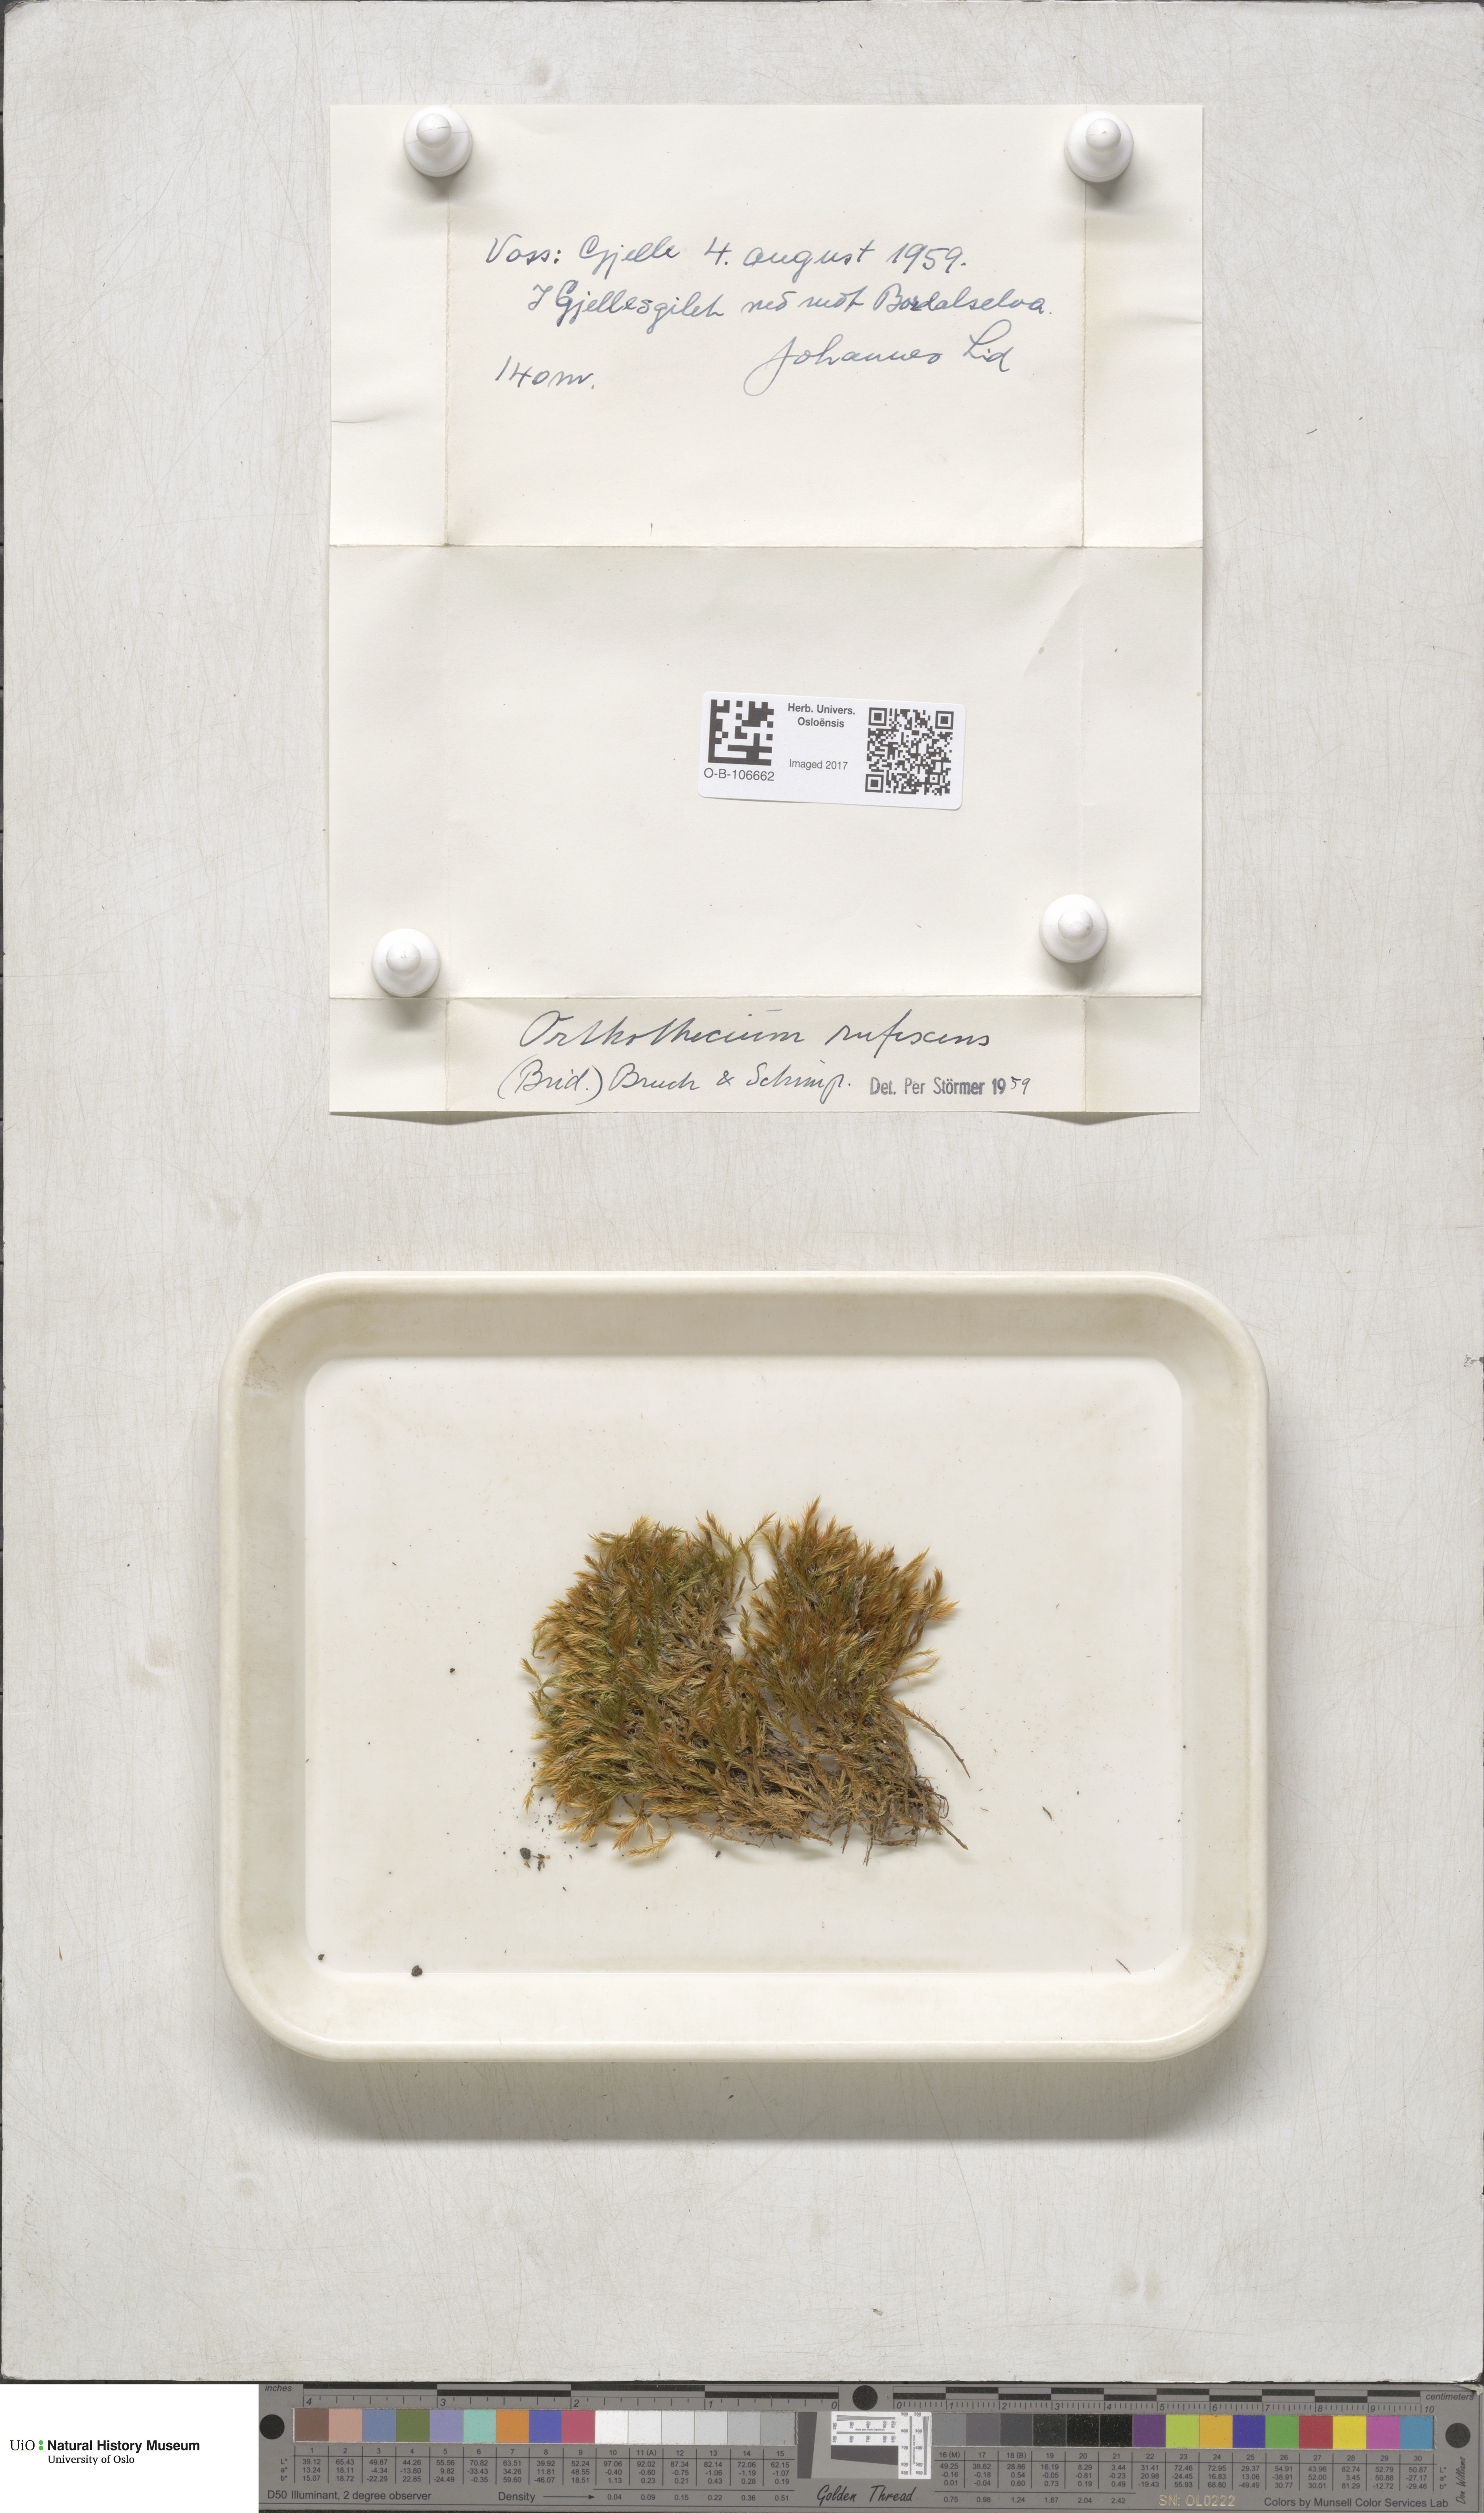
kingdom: Plantae
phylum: Bryophyta
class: Bryopsida
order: Hypnales
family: Plagiotheciaceae
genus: Orthothecium
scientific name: Orthothecium rufescens
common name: Red leskea
